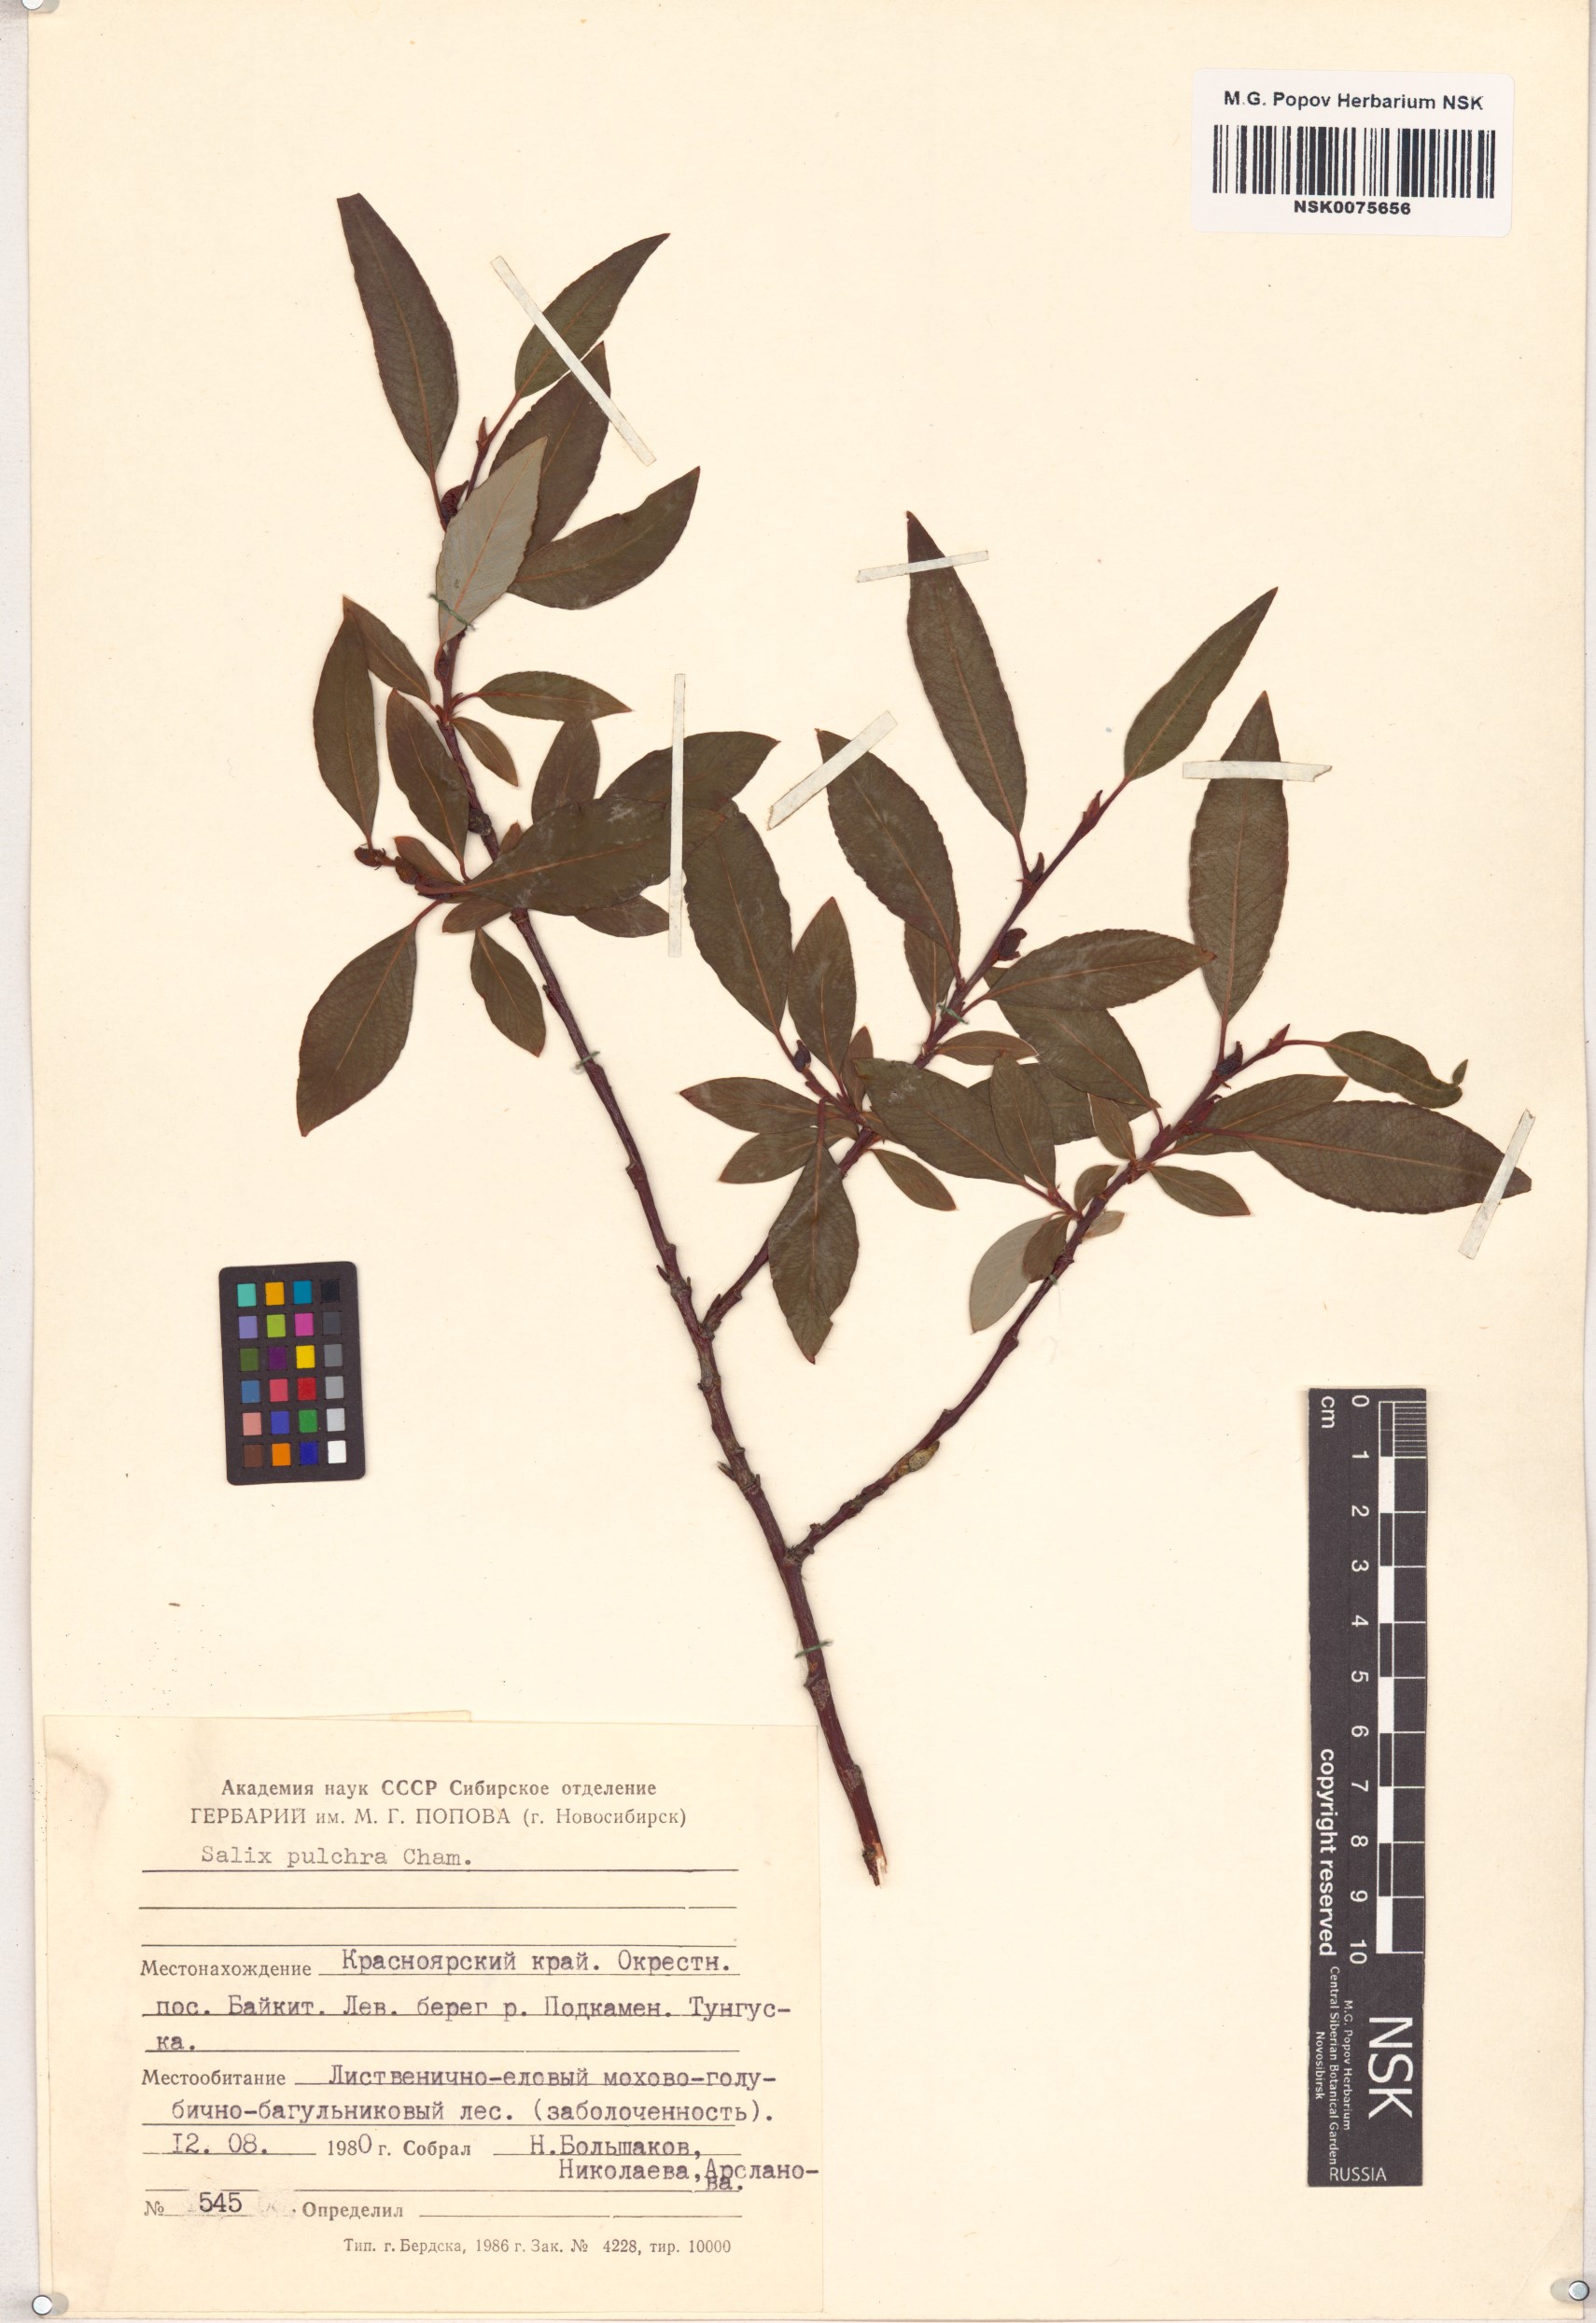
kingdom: Plantae
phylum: Tracheophyta
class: Magnoliopsida
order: Malpighiales
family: Salicaceae
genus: Salix
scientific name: Salix pulchra
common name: Diamond-leaved willow
